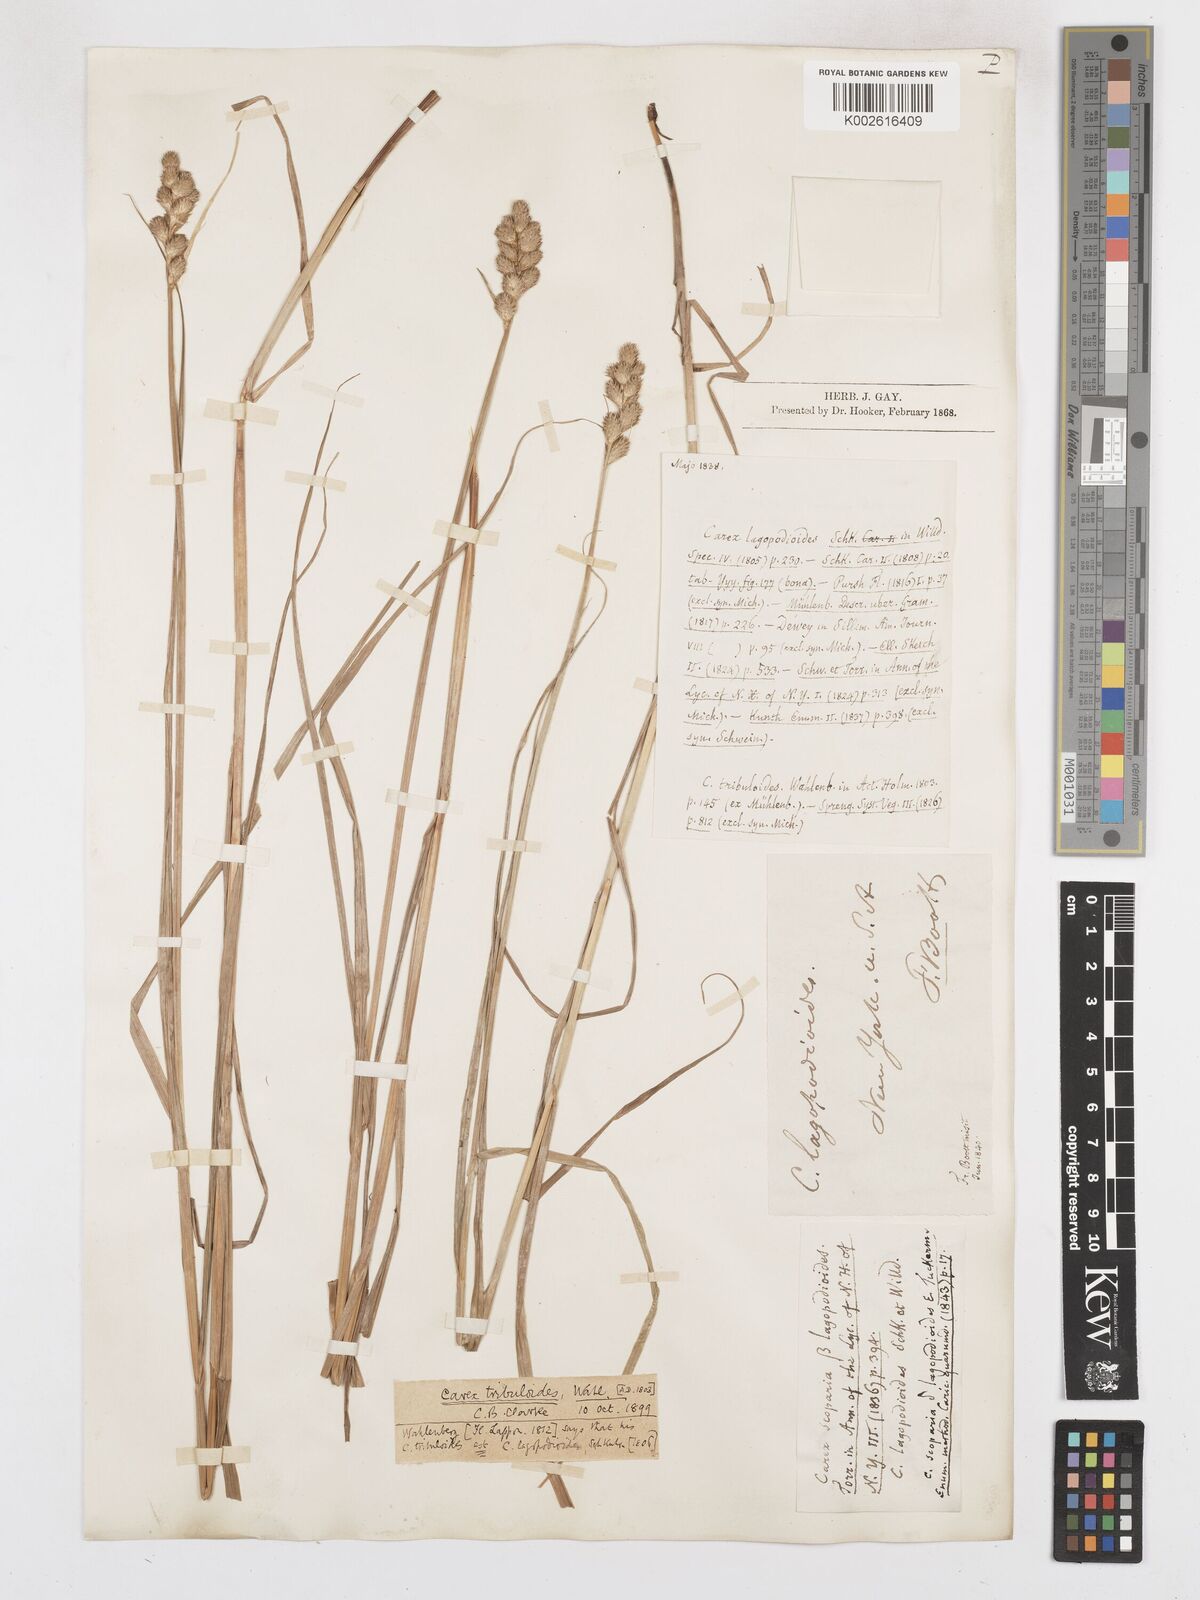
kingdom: Plantae
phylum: Tracheophyta
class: Liliopsida
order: Poales
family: Cyperaceae
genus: Carex
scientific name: Carex tribuloides
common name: Blunt broom sedge
